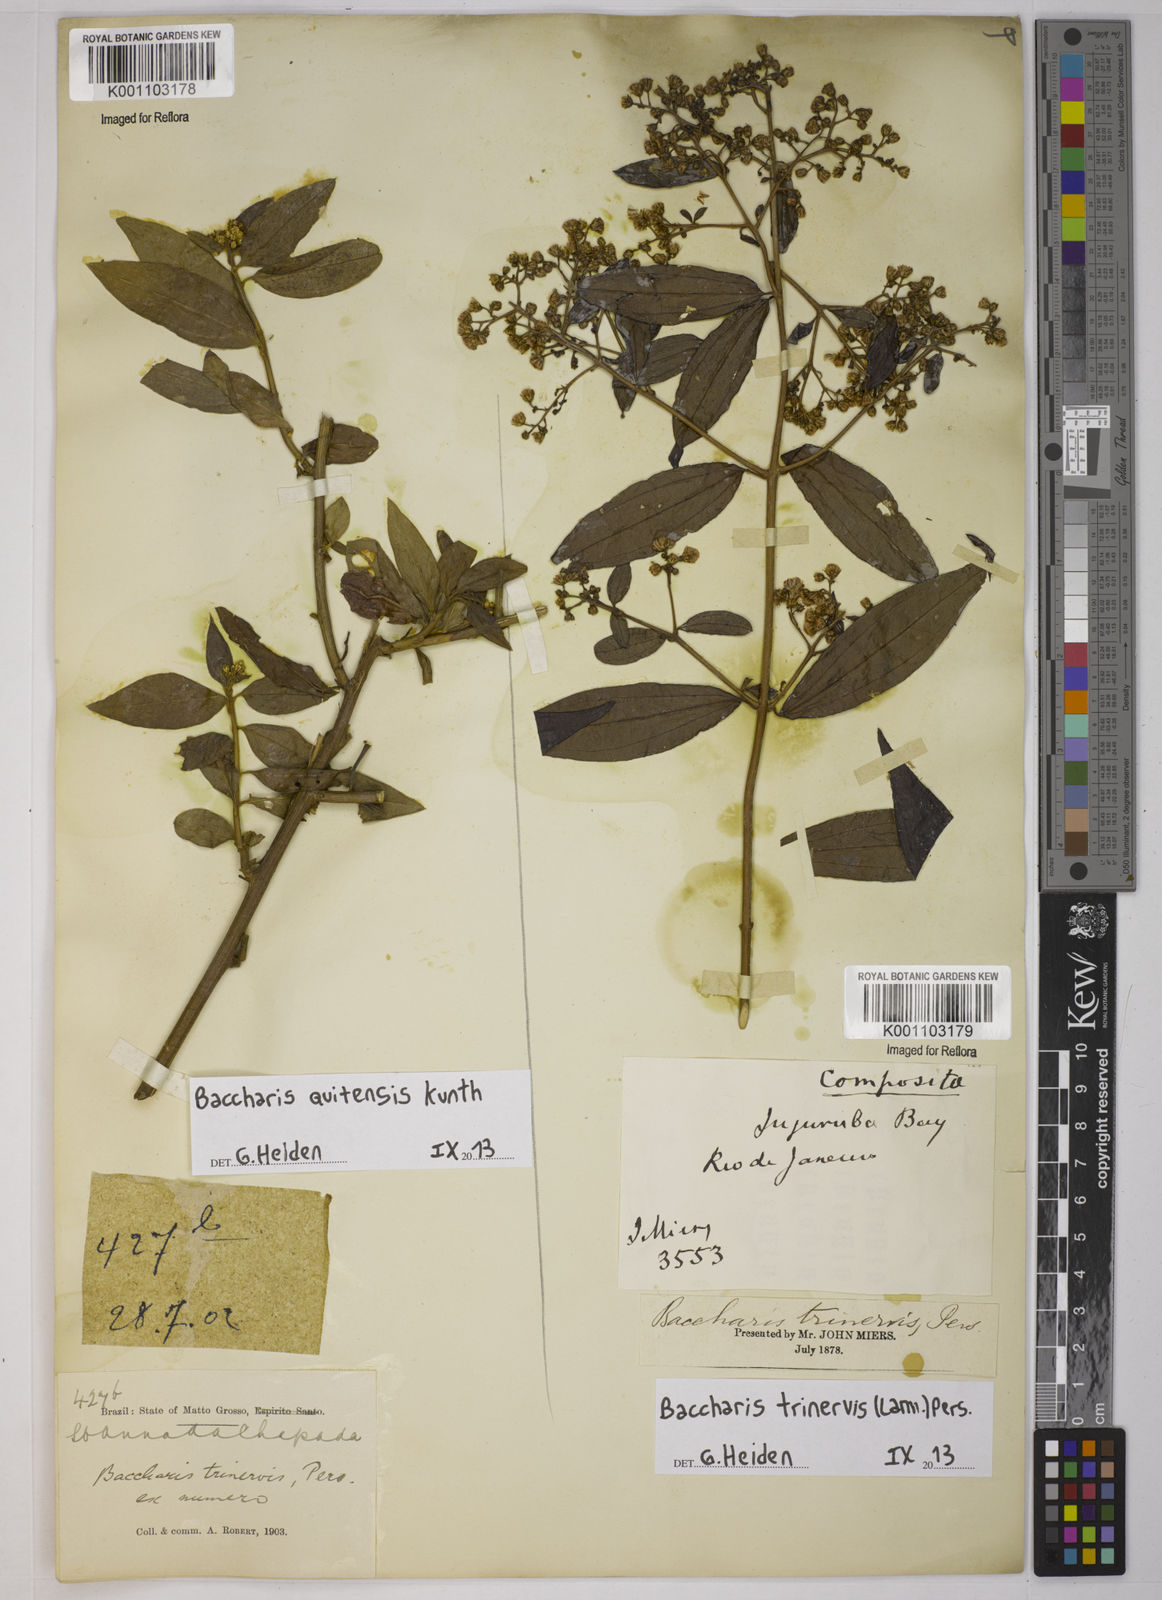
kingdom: Plantae
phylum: Tracheophyta
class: Magnoliopsida
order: Asterales
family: Asteraceae
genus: Baccharis
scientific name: Baccharis trinervis
